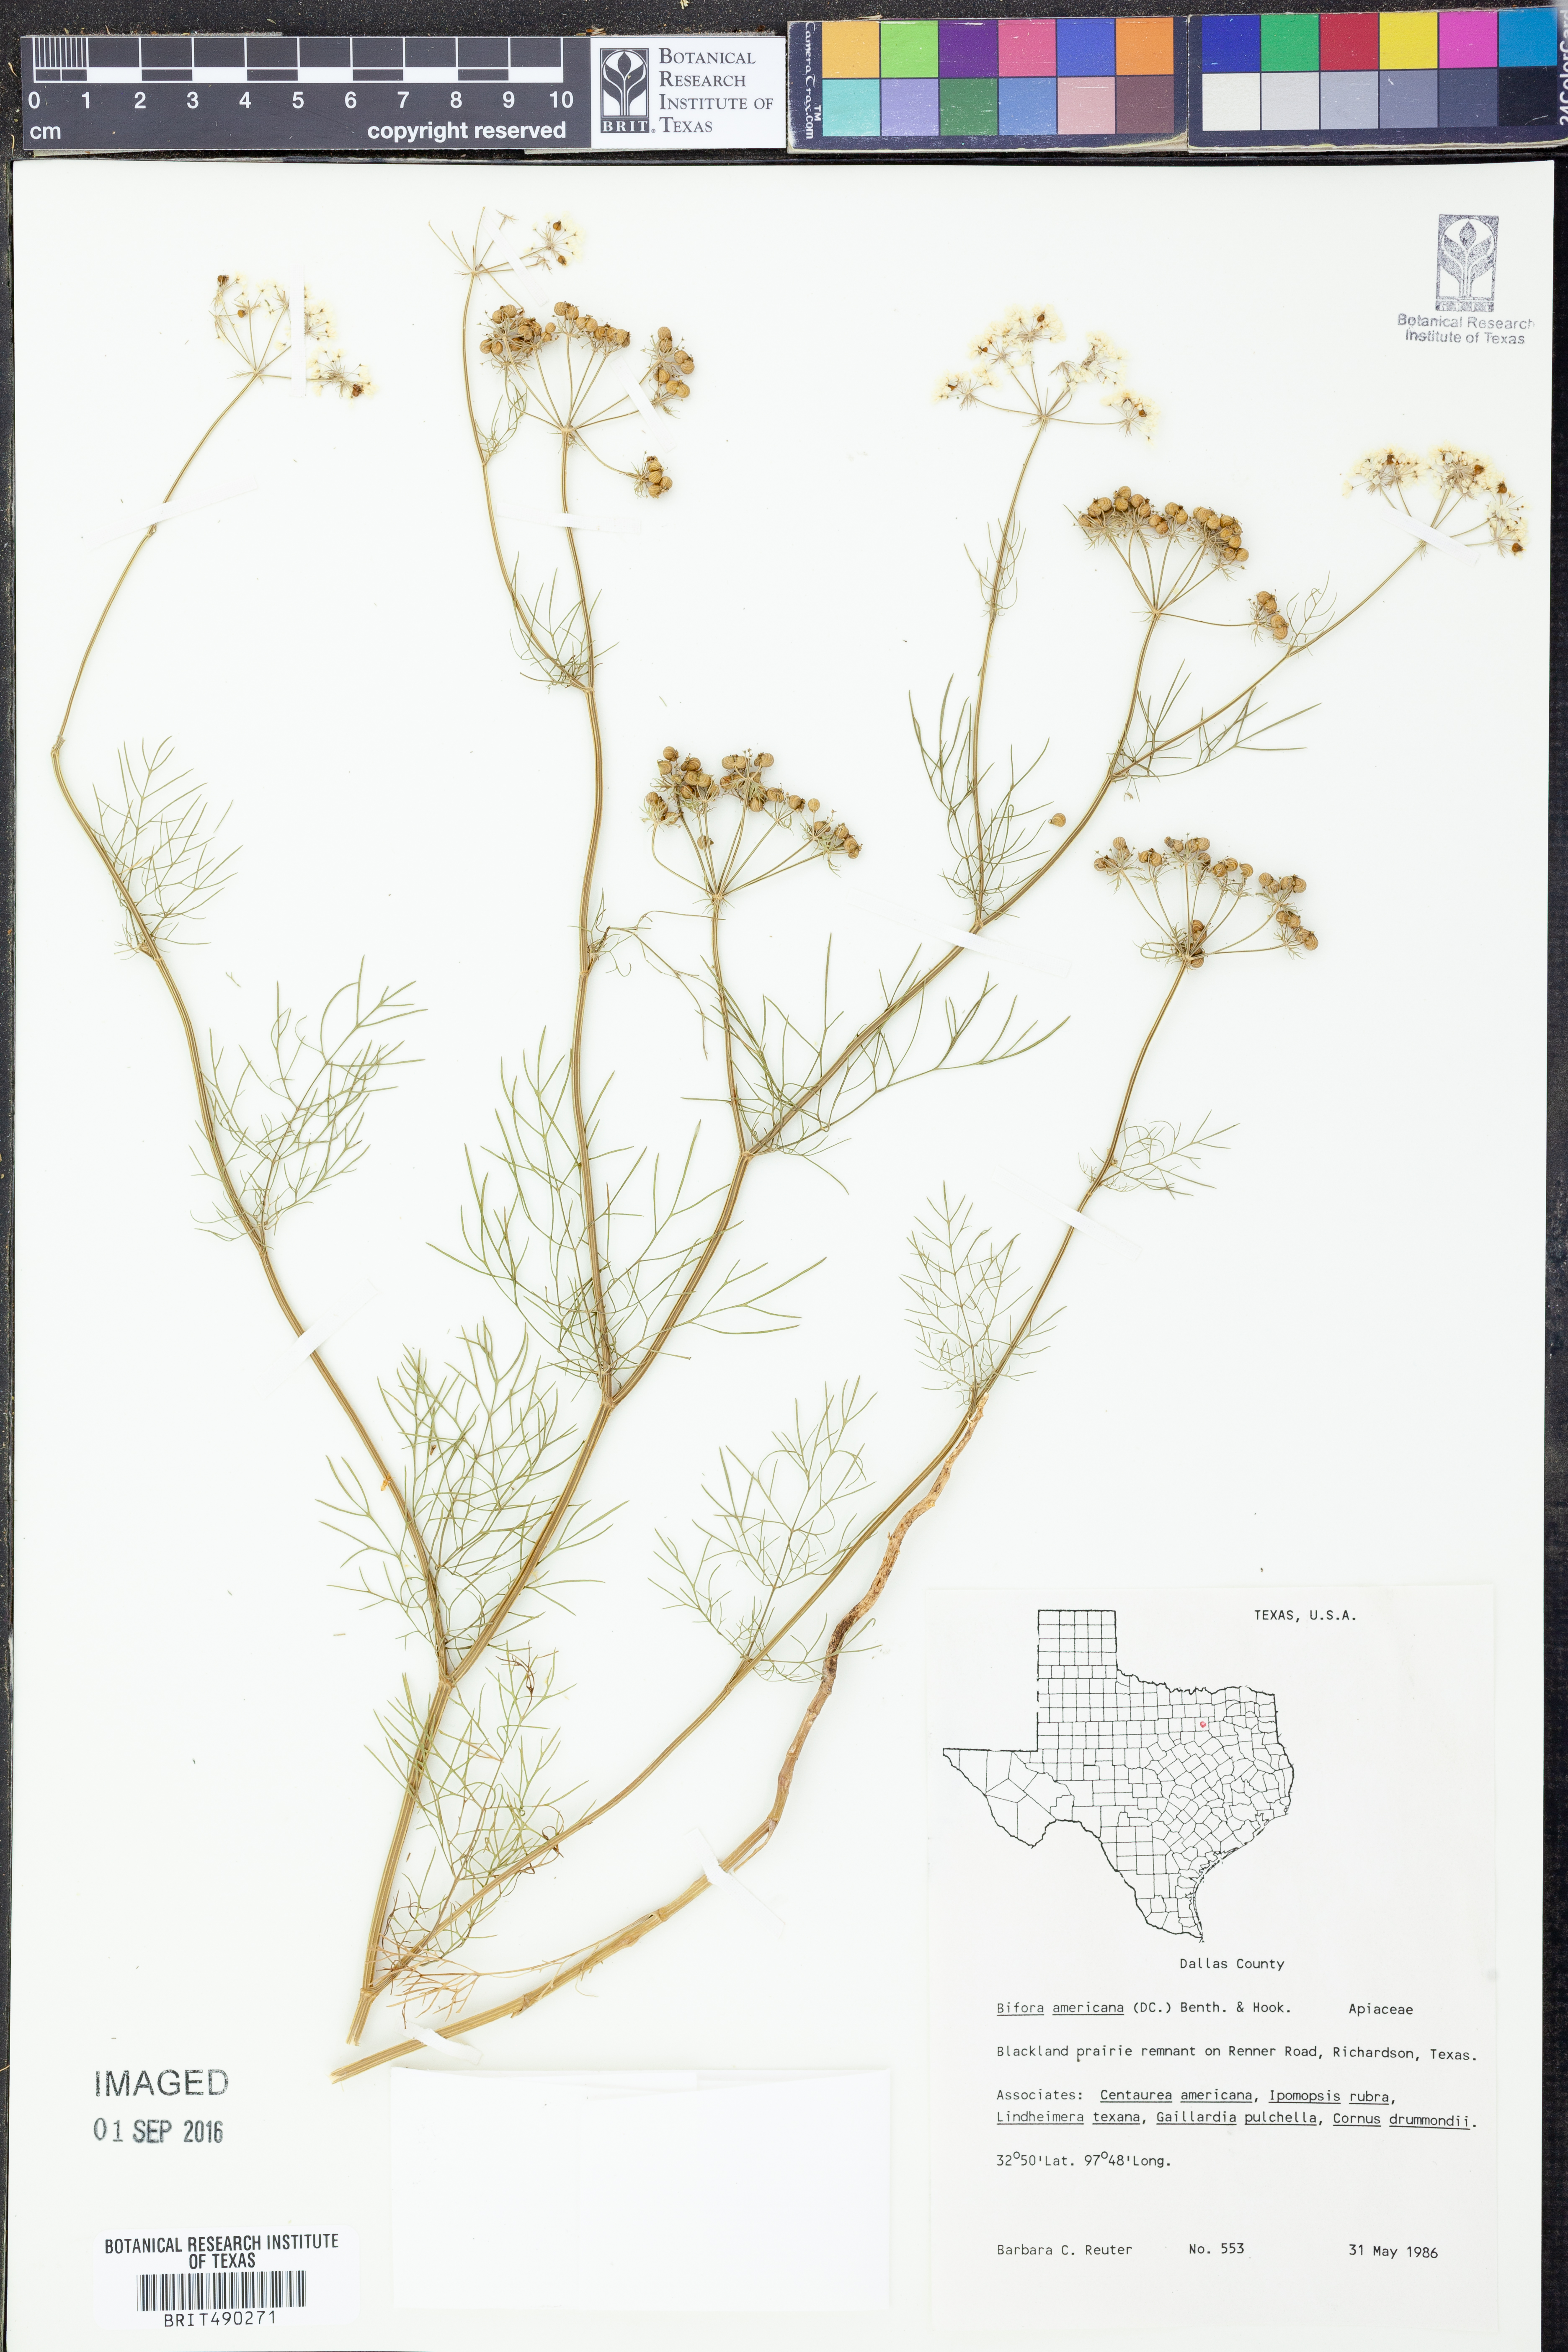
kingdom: Plantae
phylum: Tracheophyta
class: Magnoliopsida
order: Apiales
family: Apiaceae
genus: Atrema
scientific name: Atrema americanum
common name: Prairie-bishop
